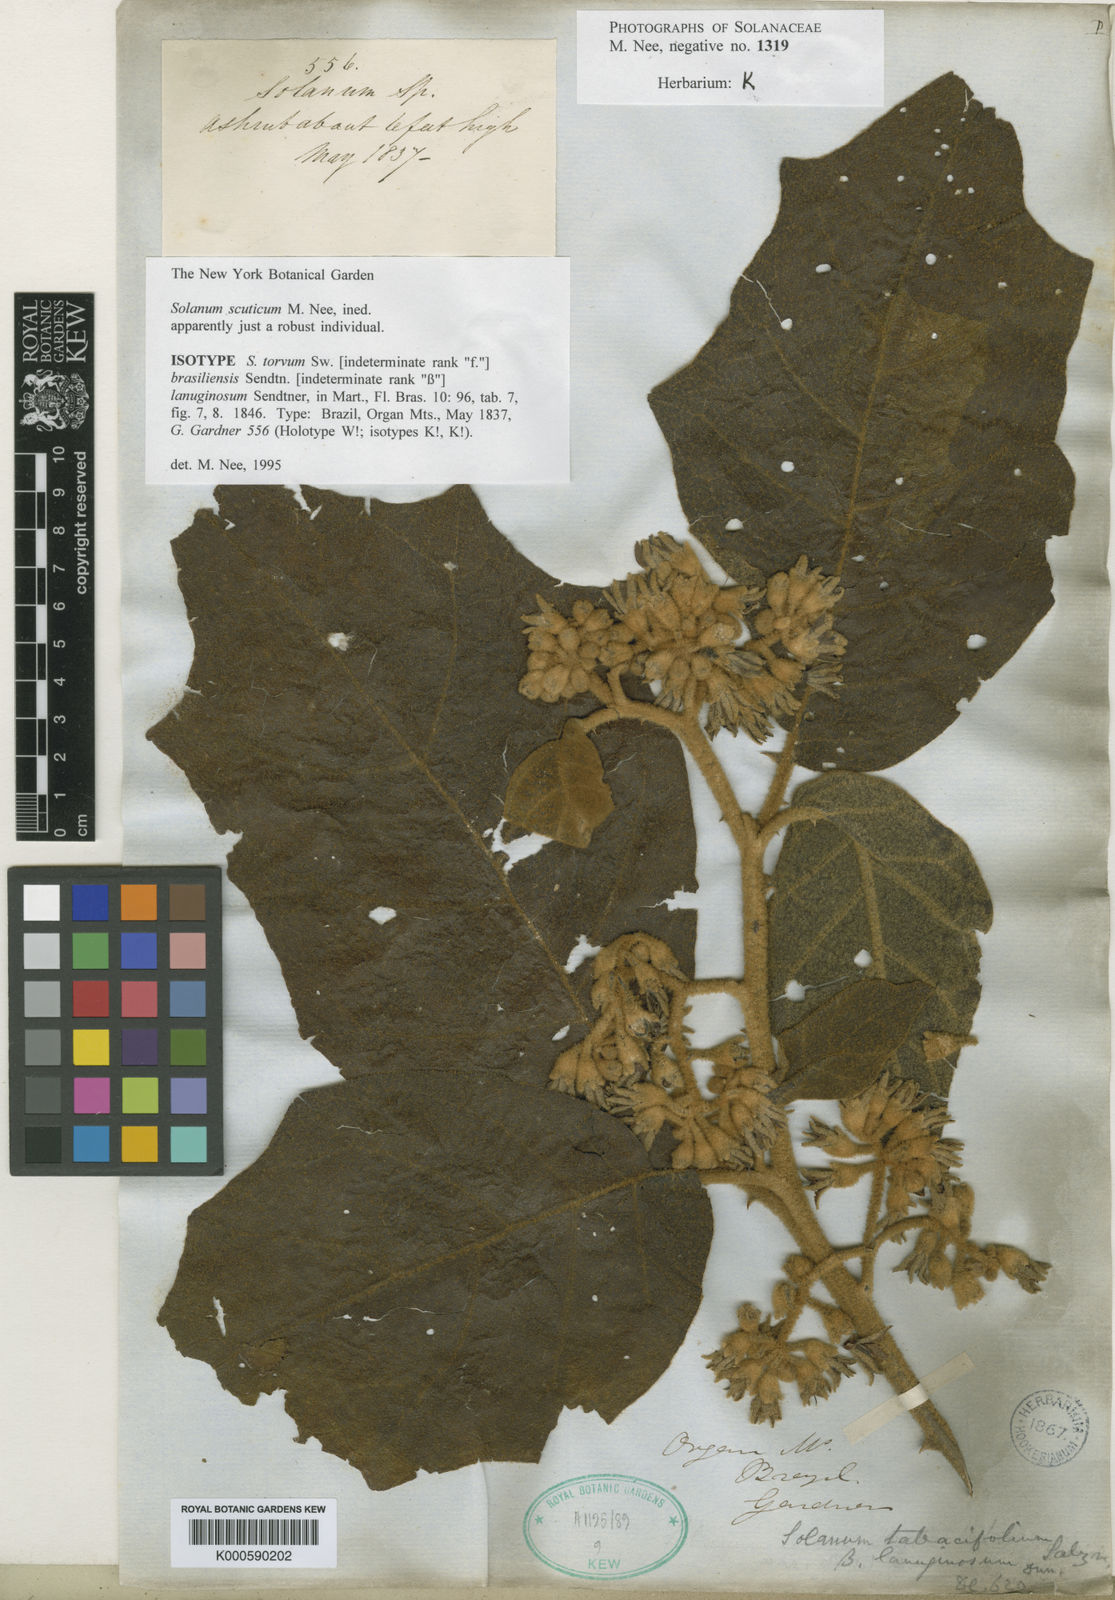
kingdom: Plantae
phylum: Tracheophyta
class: Magnoliopsida
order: Solanales
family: Solanaceae
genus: Solanum
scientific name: Solanum scuticum
